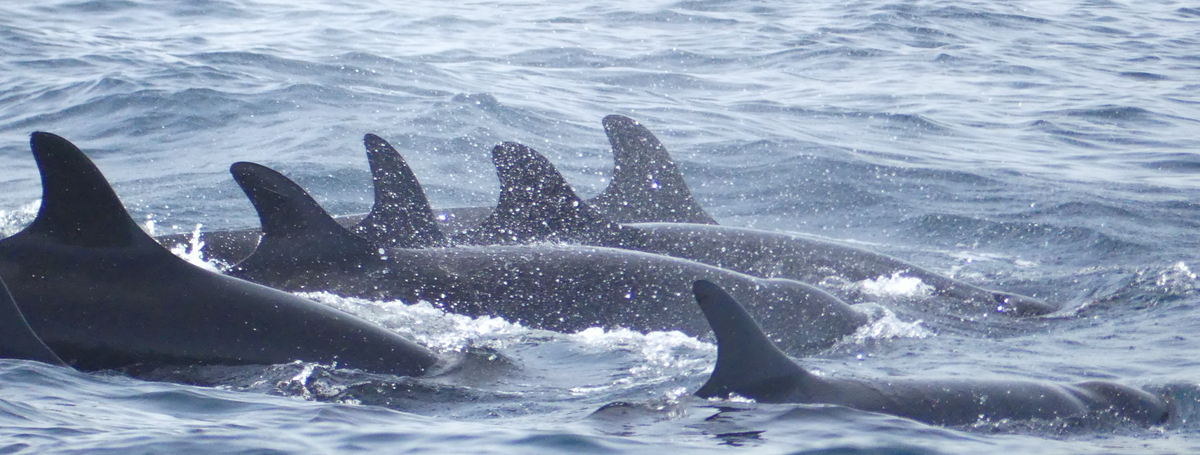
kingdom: Animalia
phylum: Chordata
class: Mammalia
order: Cetacea
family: Delphinidae
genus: Pseudorca
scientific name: Pseudorca crassidens
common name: False Killer Whale
